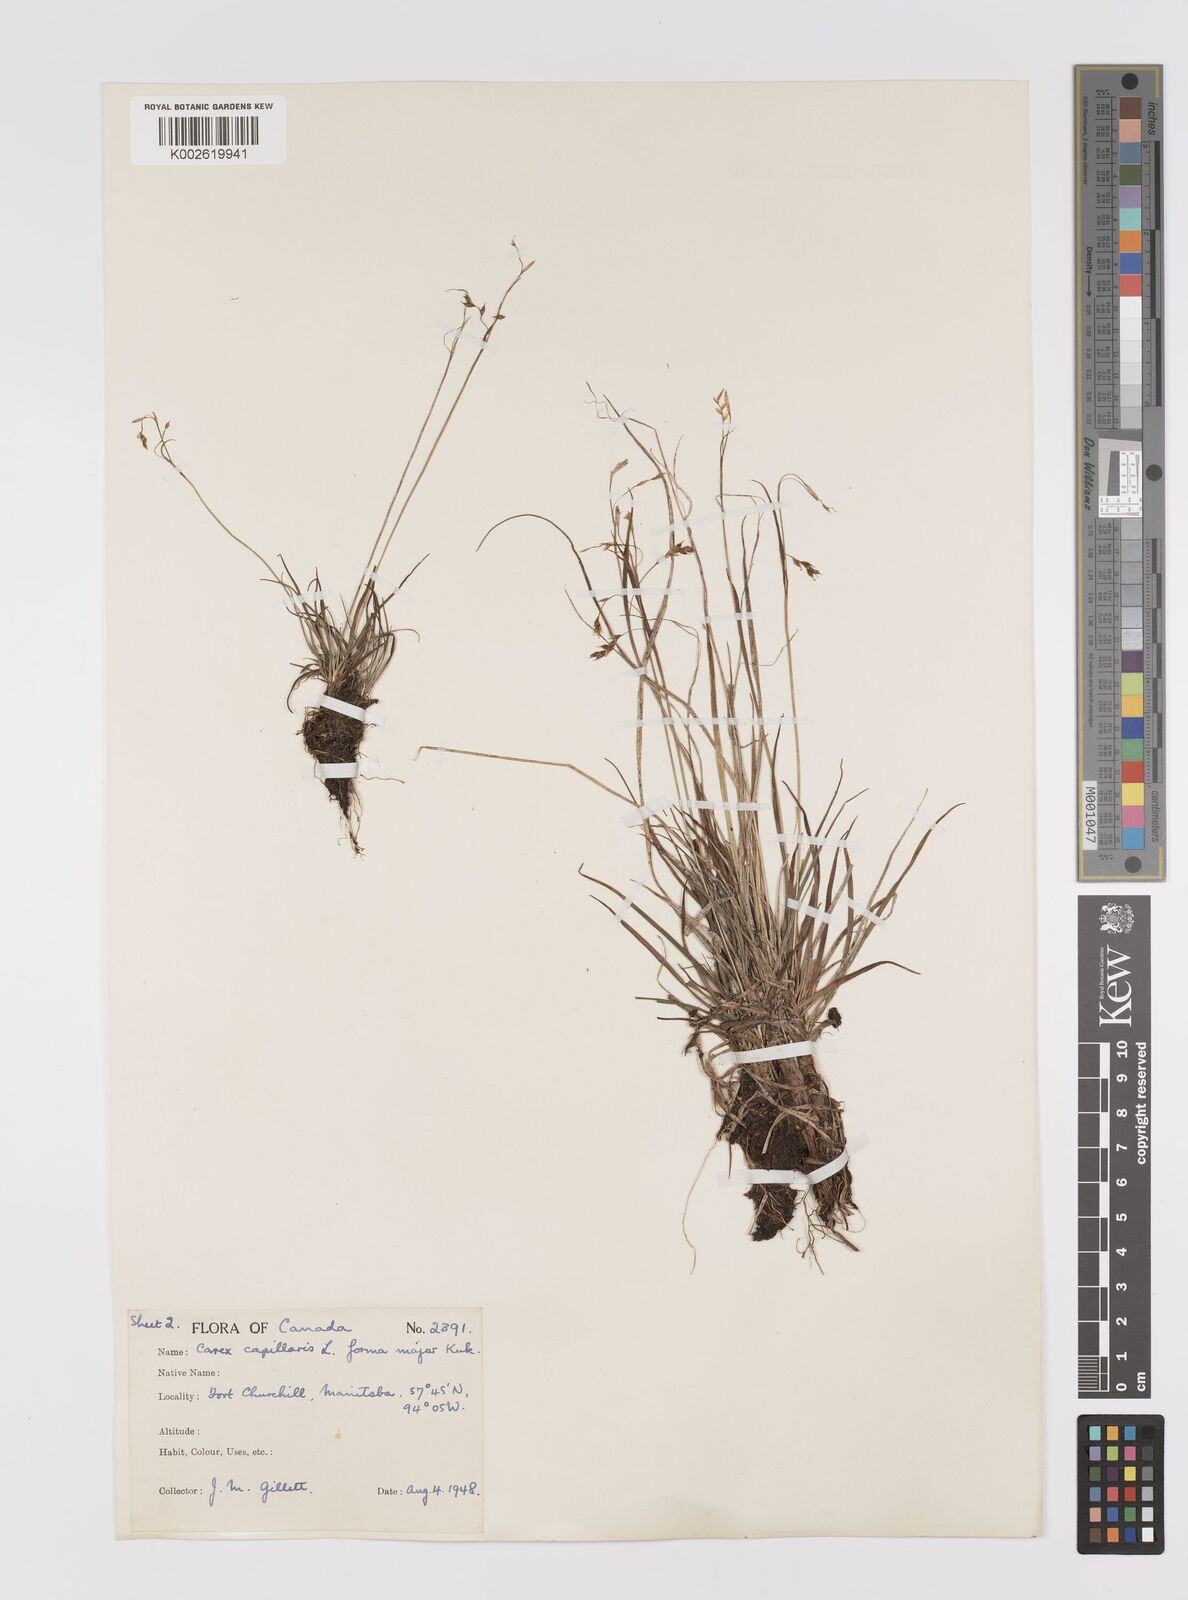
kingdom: Plantae
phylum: Tracheophyta
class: Liliopsida
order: Poales
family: Cyperaceae
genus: Carex
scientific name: Carex capillaris
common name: Hair sedge
